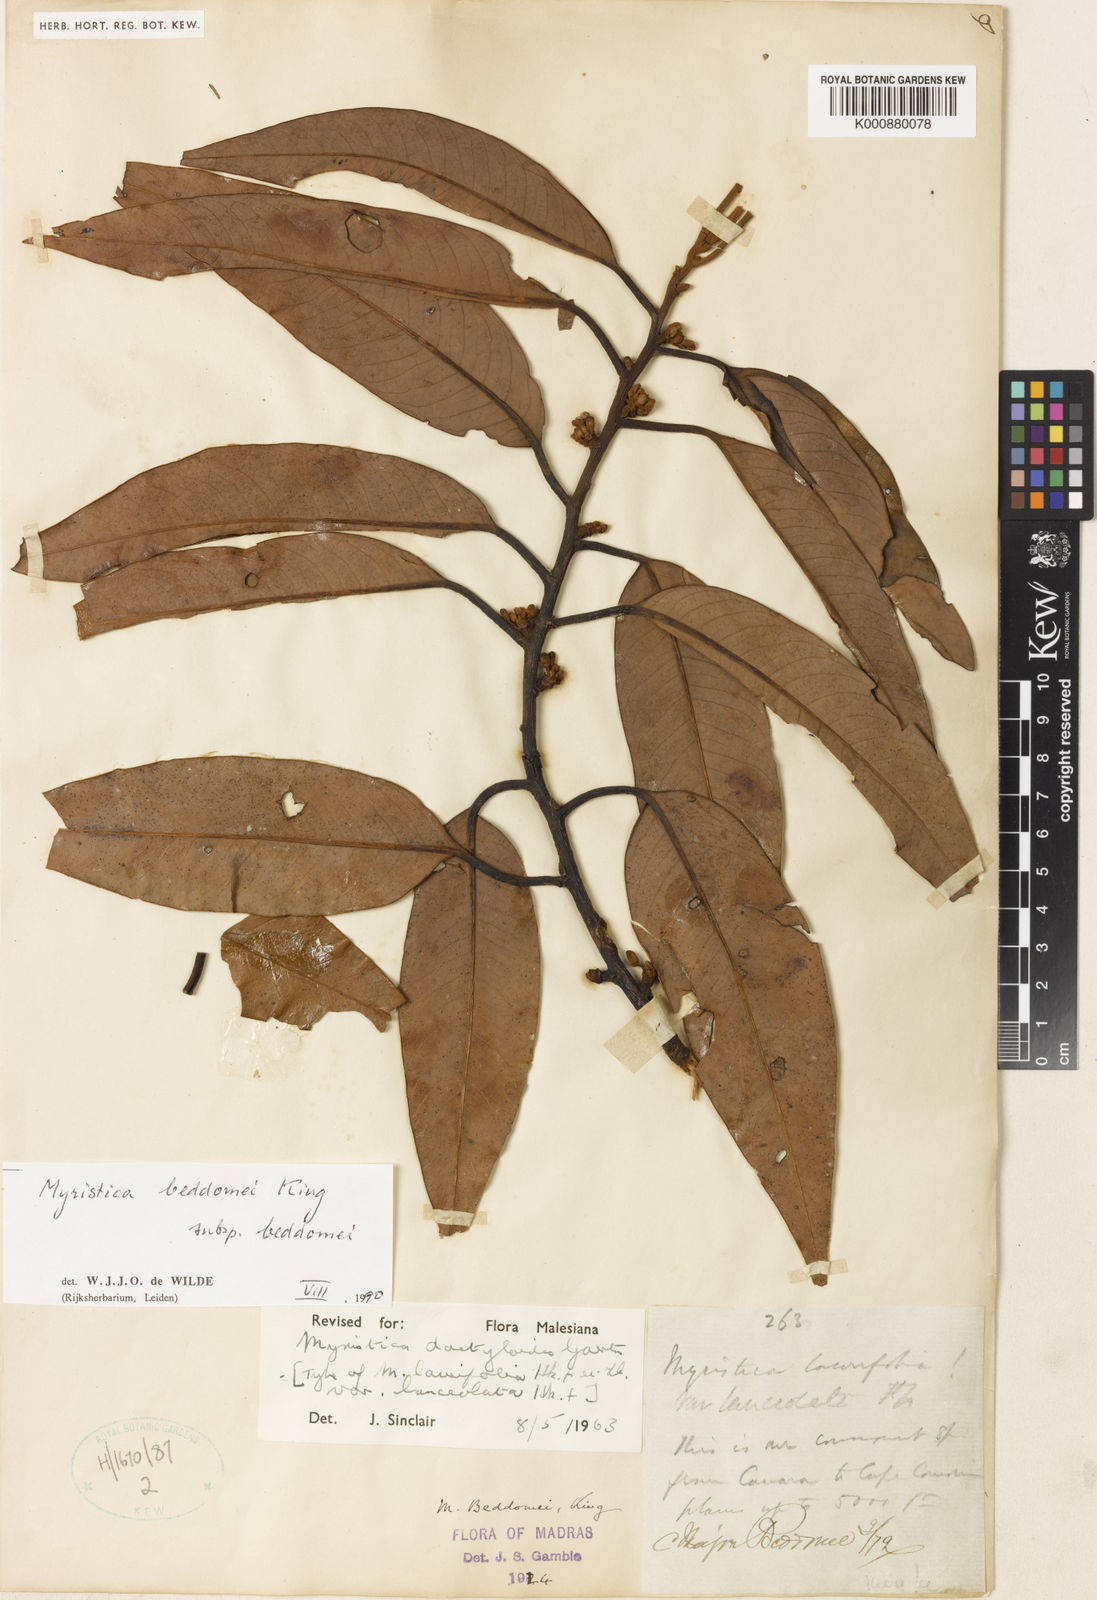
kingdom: Plantae
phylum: Tracheophyta
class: Magnoliopsida
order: Magnoliales
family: Myristicaceae
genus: Myristica
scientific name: Myristica beddomei
